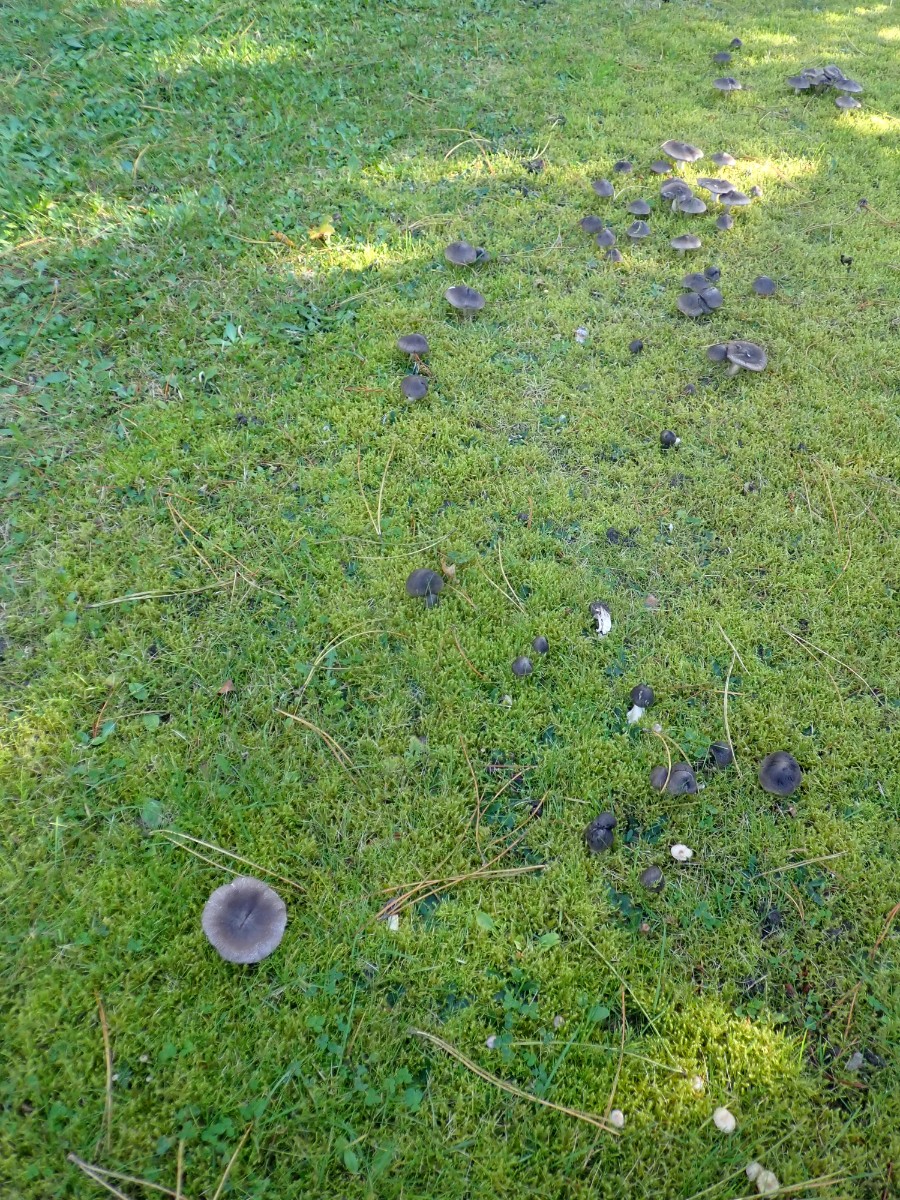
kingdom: Fungi
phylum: Basidiomycota
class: Agaricomycetes
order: Agaricales
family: Tricholomataceae
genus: Tricholoma
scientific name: Tricholoma terreum
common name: jordfarvet ridderhat
